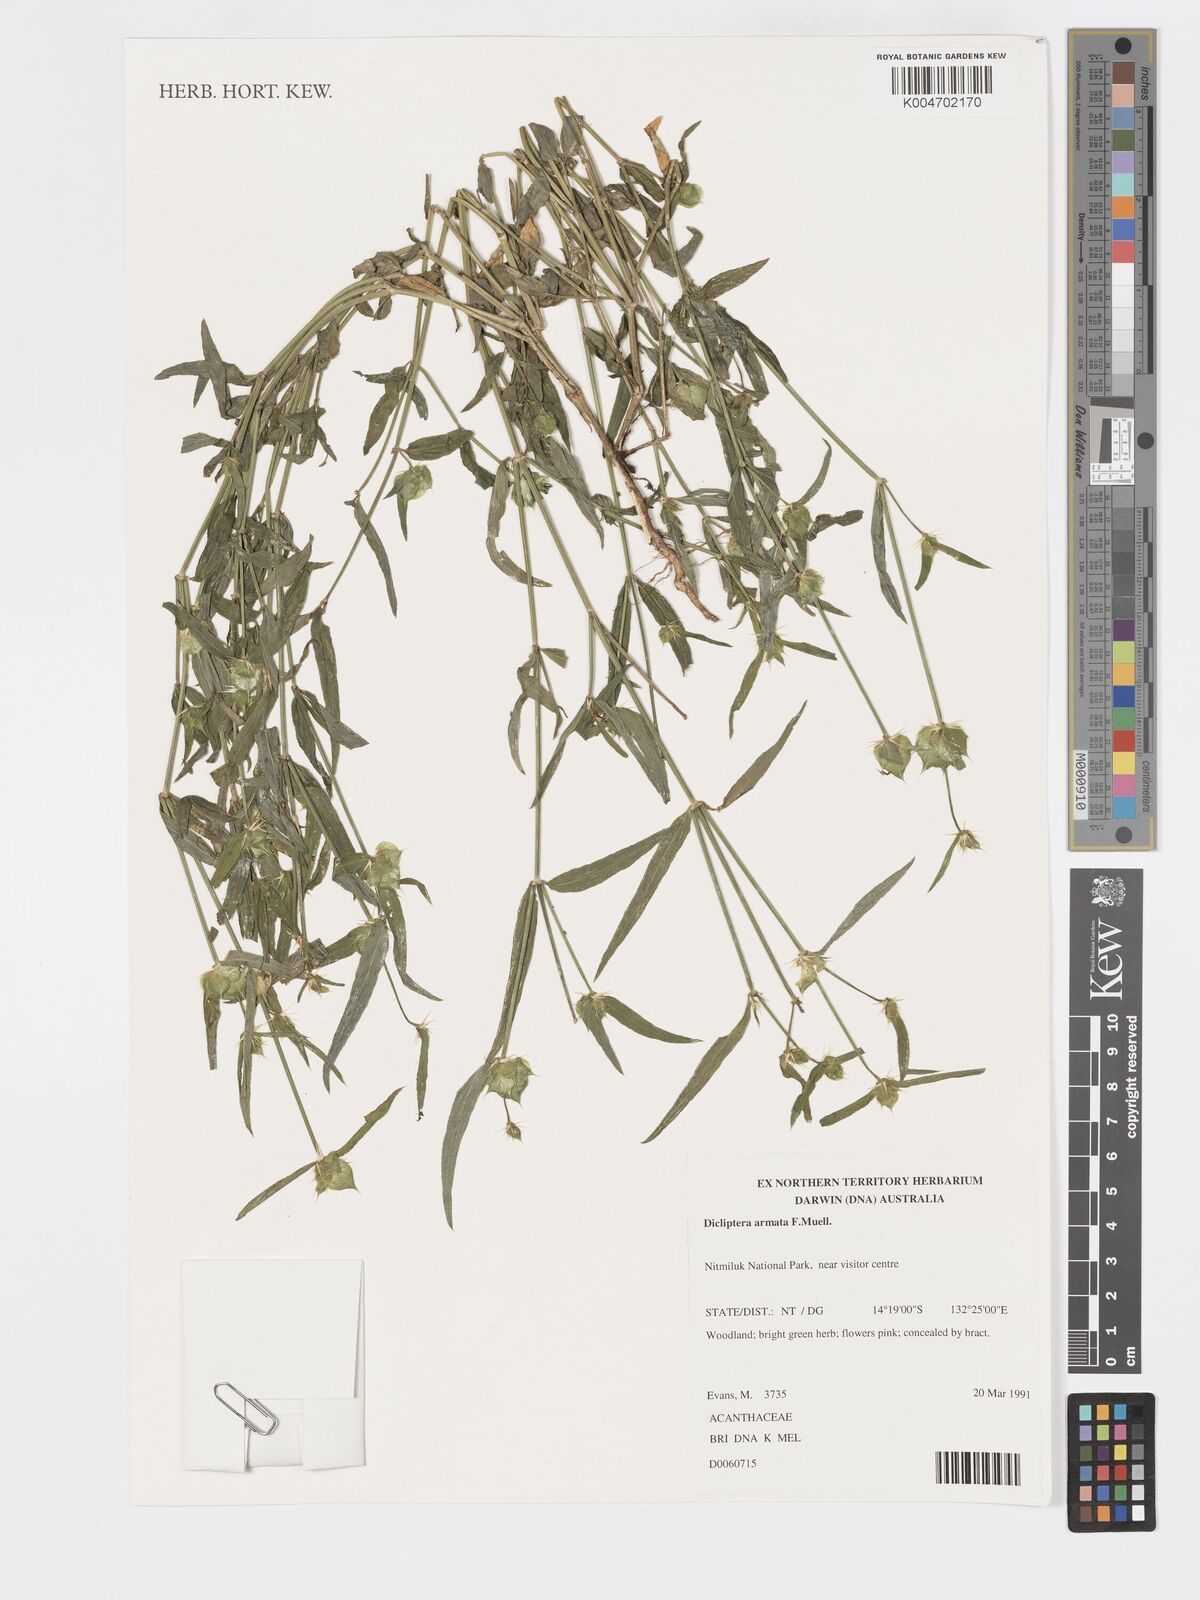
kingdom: Plantae
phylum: Tracheophyta
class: Magnoliopsida
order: Lamiales
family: Acanthaceae
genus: Dicliptera
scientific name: Dicliptera armata
